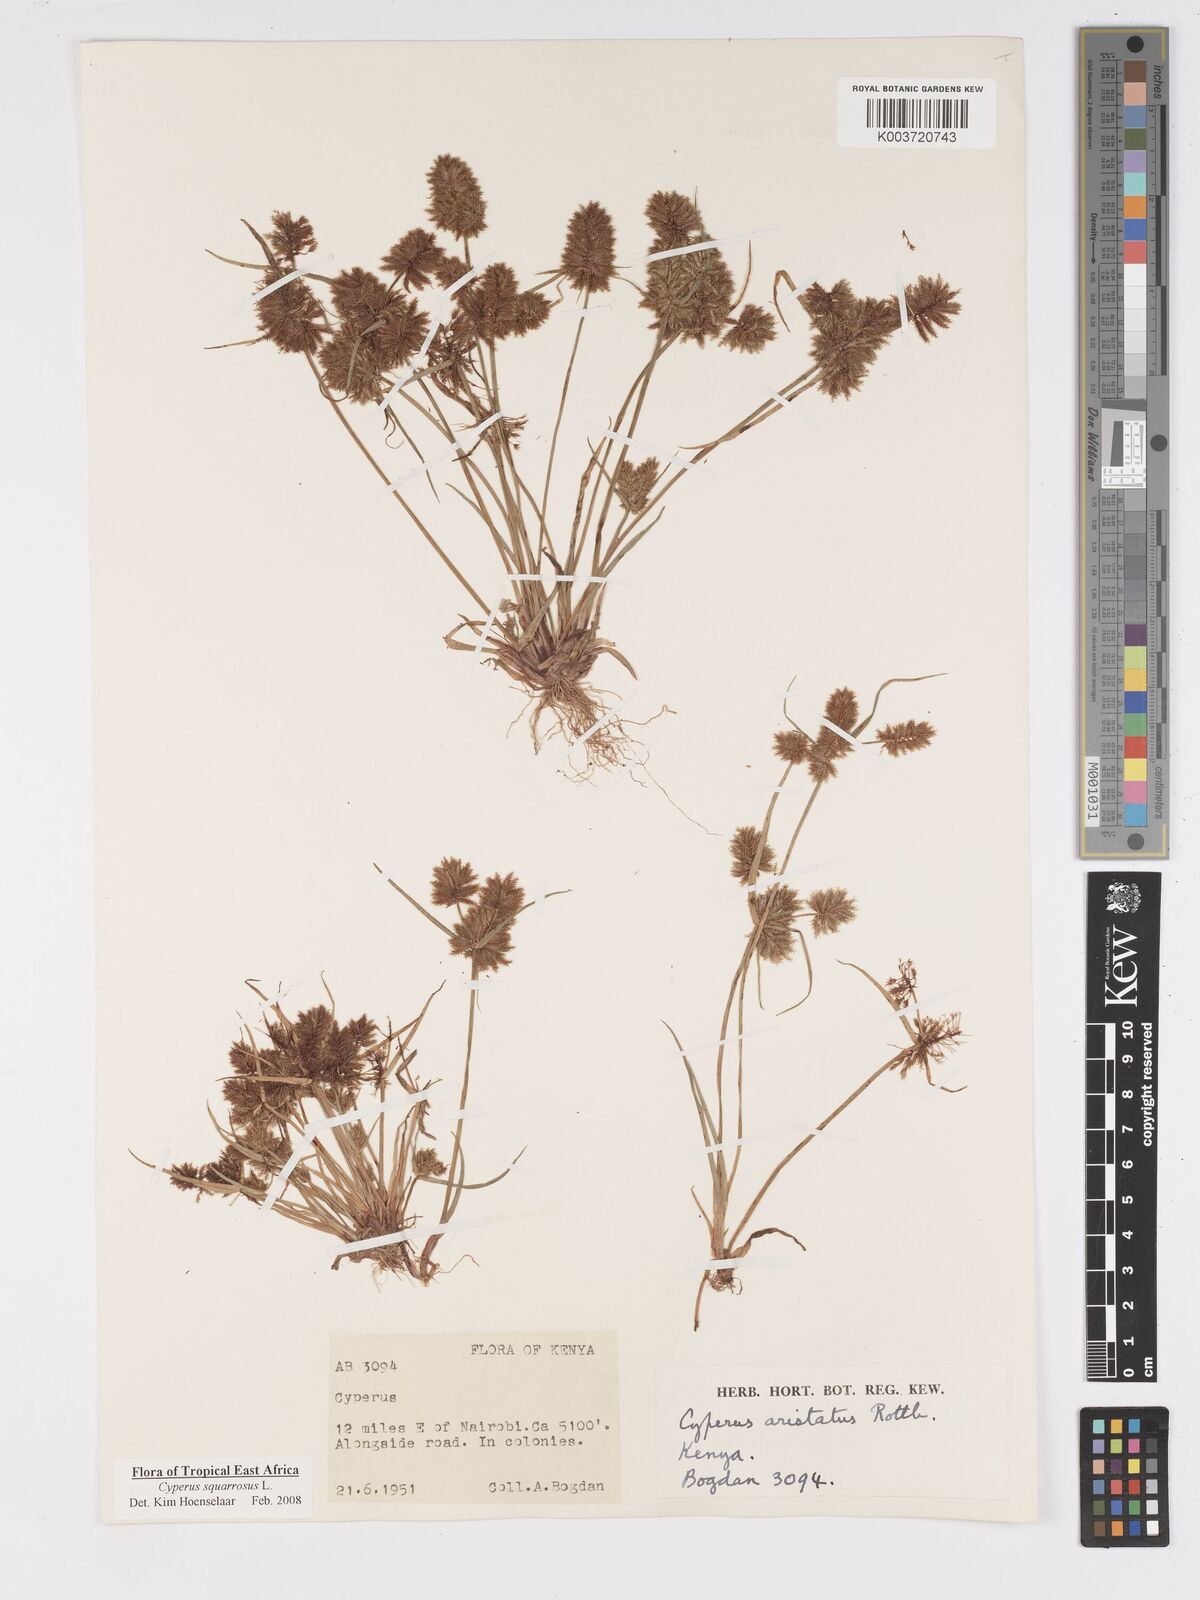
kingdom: Plantae
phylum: Tracheophyta
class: Liliopsida
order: Poales
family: Cyperaceae
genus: Cyperus
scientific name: Cyperus squarrosus
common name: Awned cyperus
